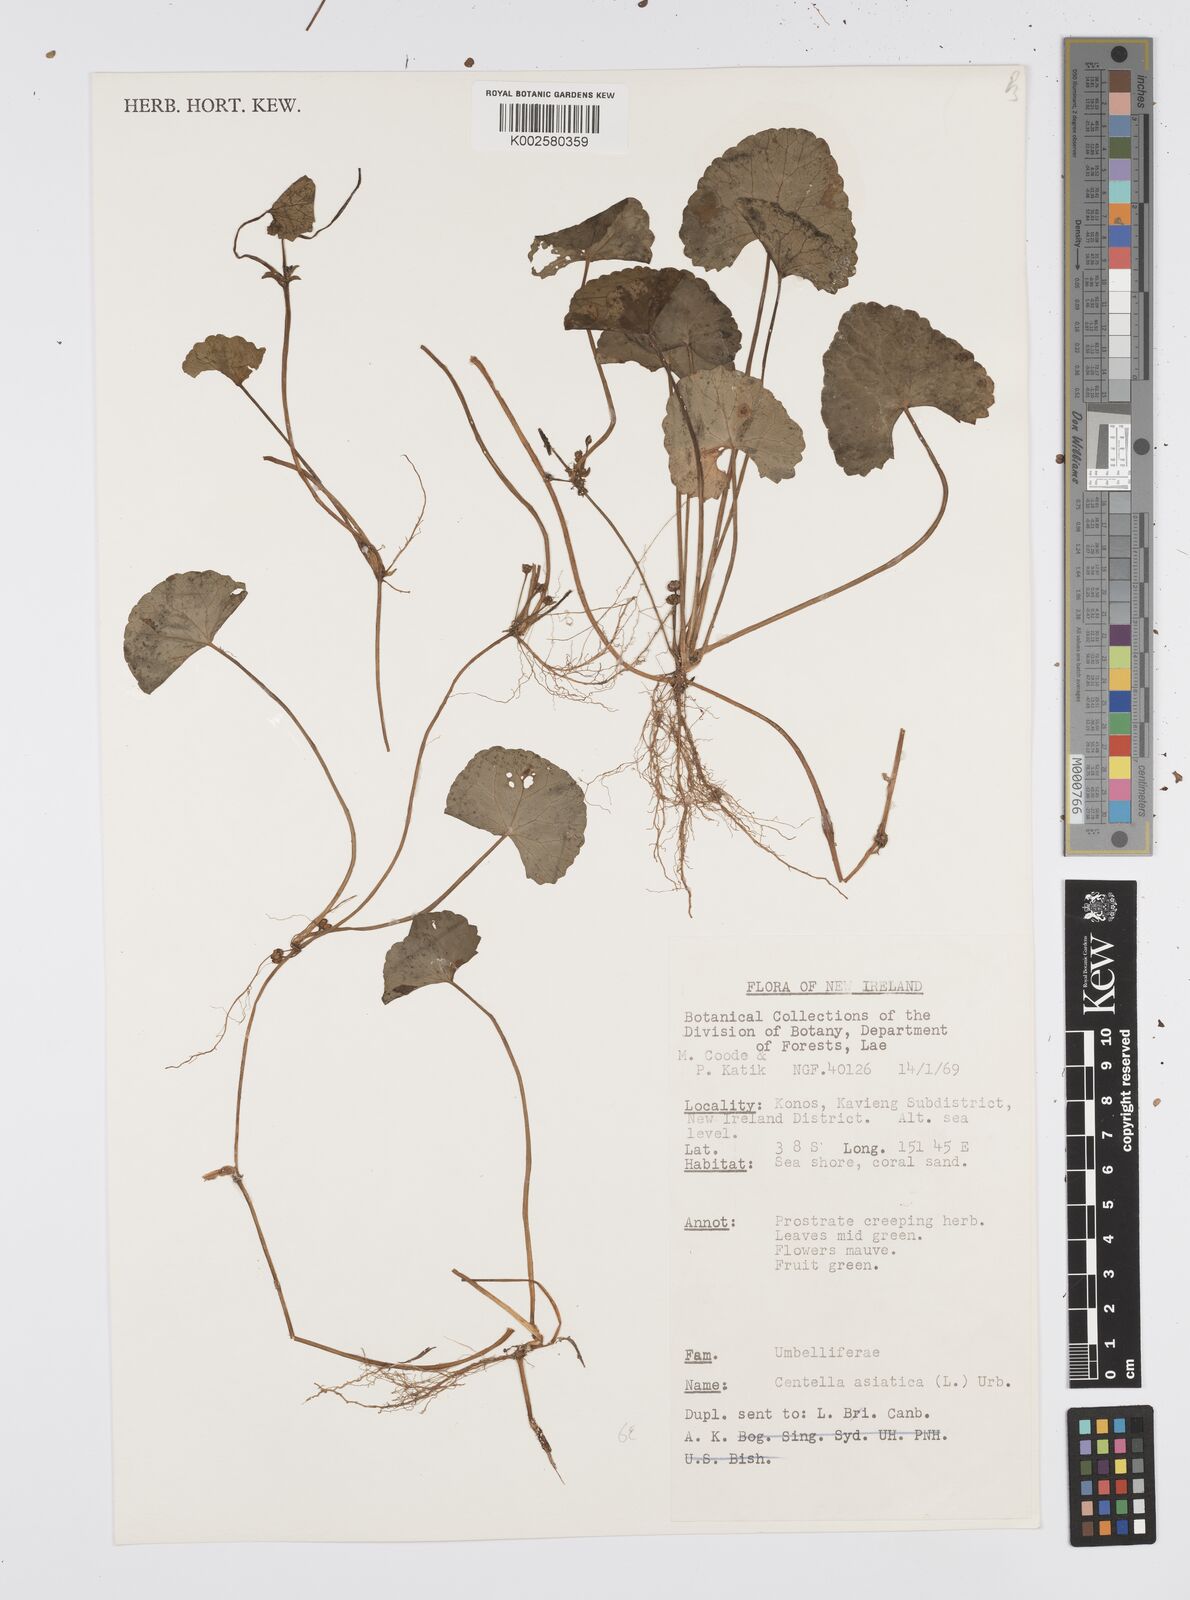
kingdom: Plantae
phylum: Tracheophyta
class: Magnoliopsida
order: Apiales
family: Apiaceae
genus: Centella
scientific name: Centella asiatica
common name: Spadeleaf
